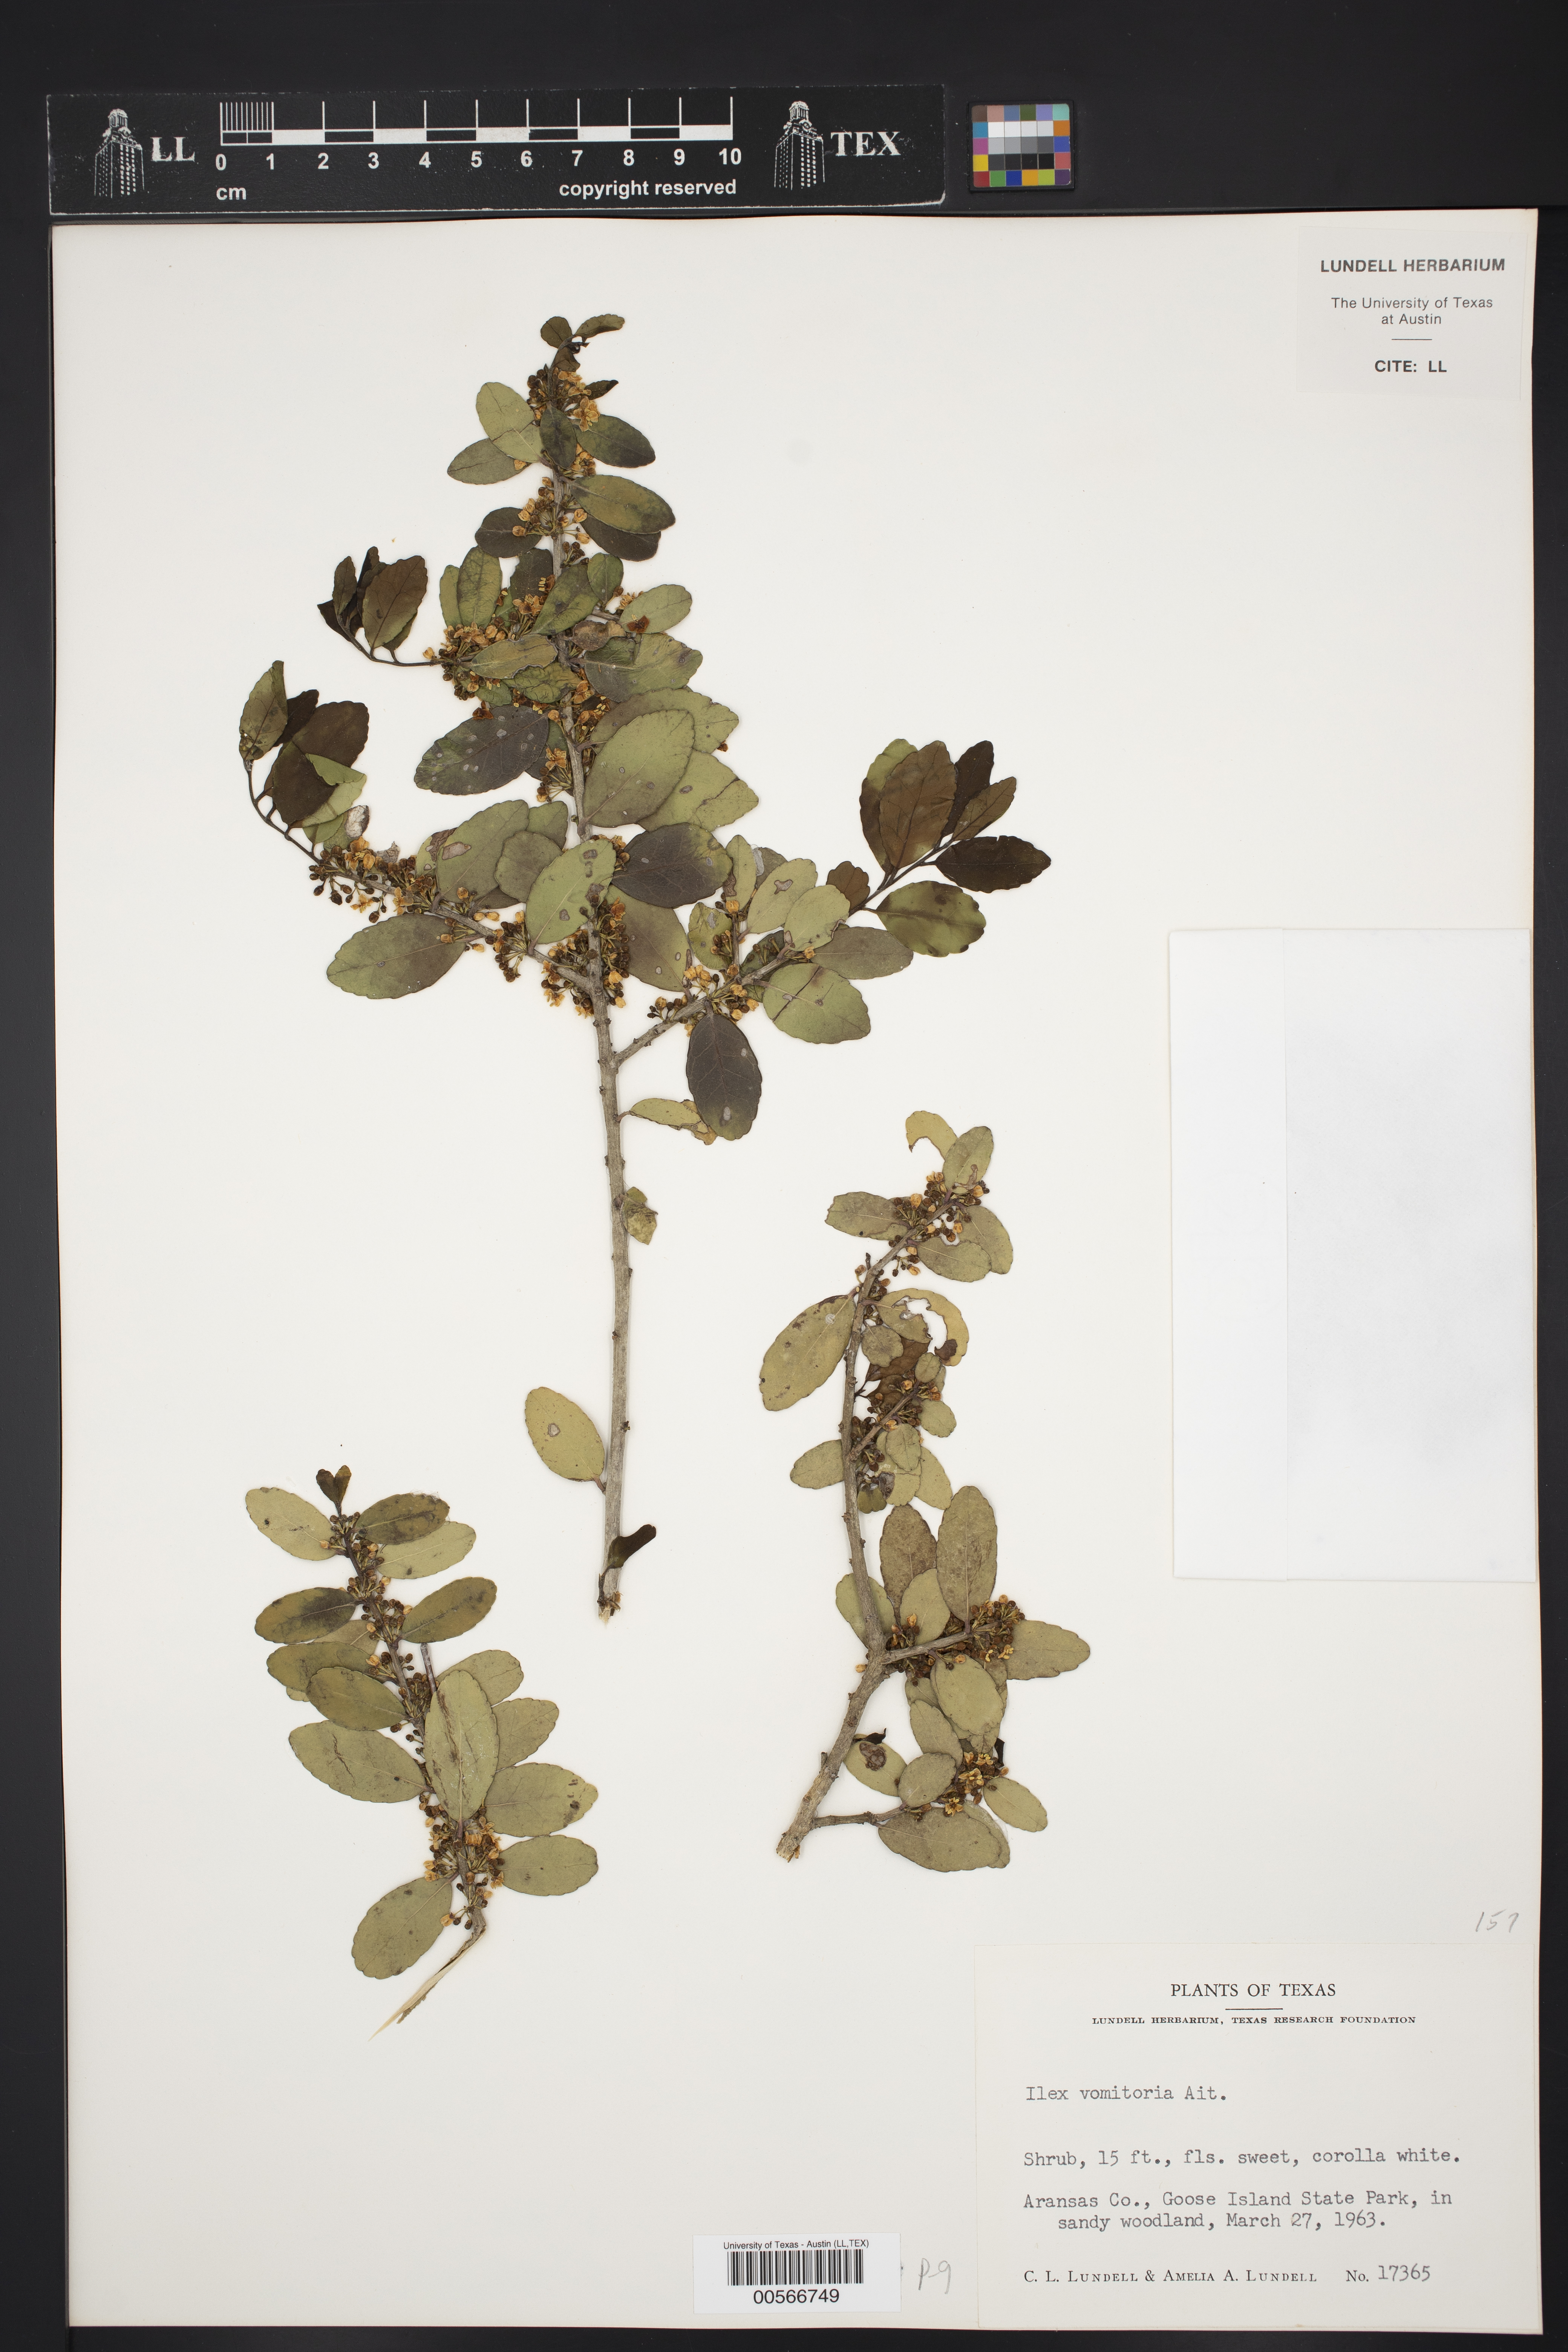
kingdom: Plantae
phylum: Tracheophyta
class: Magnoliopsida
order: Aquifoliales
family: Aquifoliaceae
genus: Ilex
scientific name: Ilex vomitoria
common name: Yaupon holly
